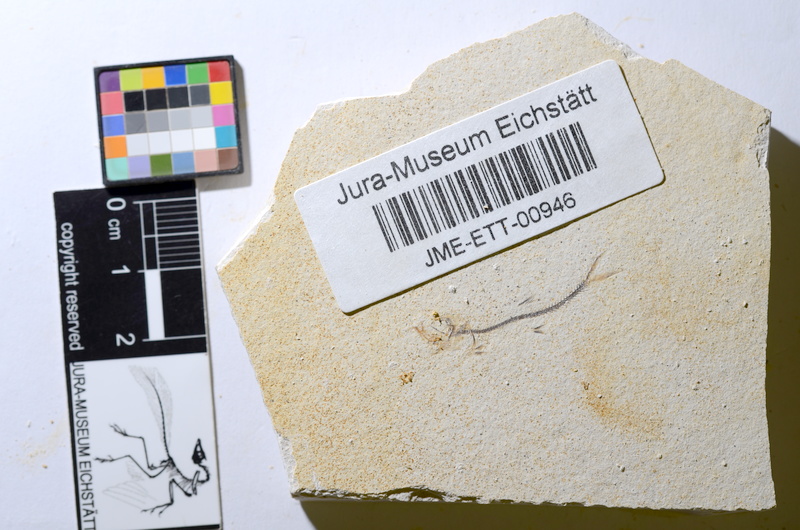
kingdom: Animalia
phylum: Chordata
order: Salmoniformes
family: Orthogonikleithridae
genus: Orthogonikleithrus
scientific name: Orthogonikleithrus hoelli
